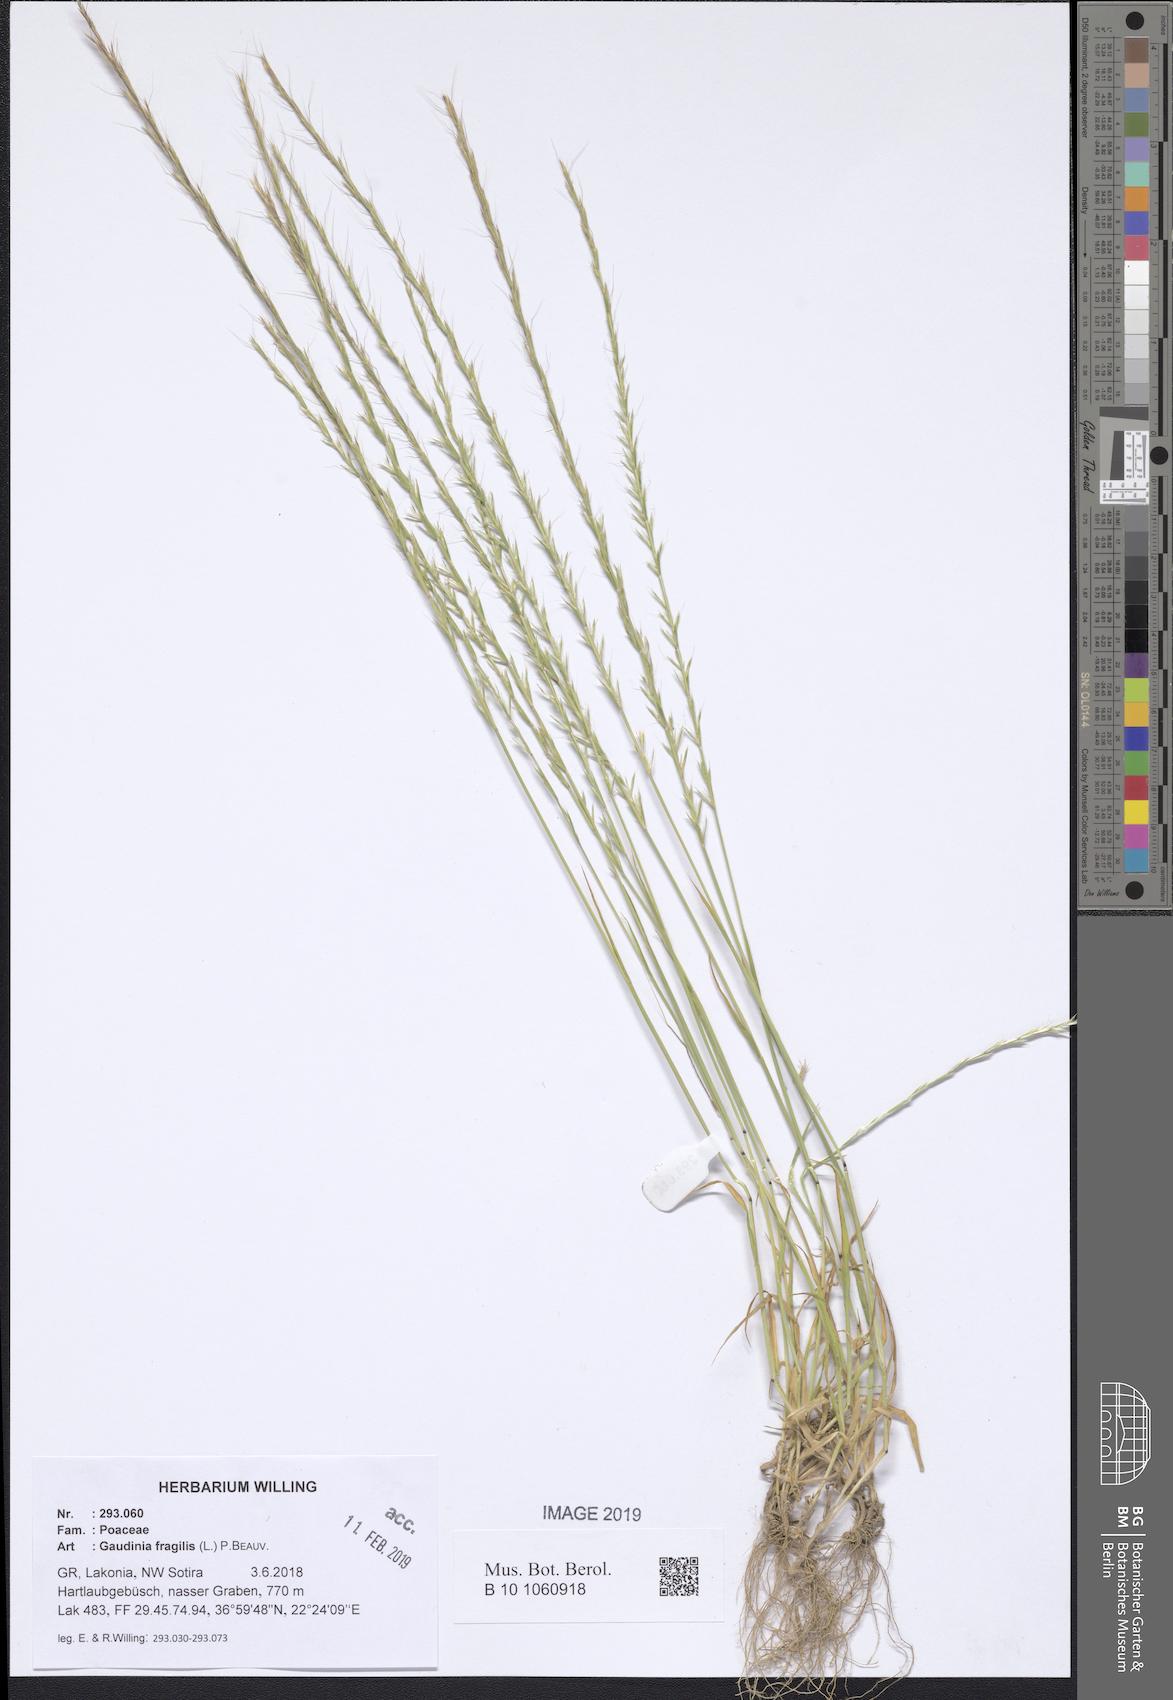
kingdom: Plantae
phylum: Tracheophyta
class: Liliopsida
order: Poales
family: Poaceae
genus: Gaudinia
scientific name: Gaudinia fragilis
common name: French oat-grass
